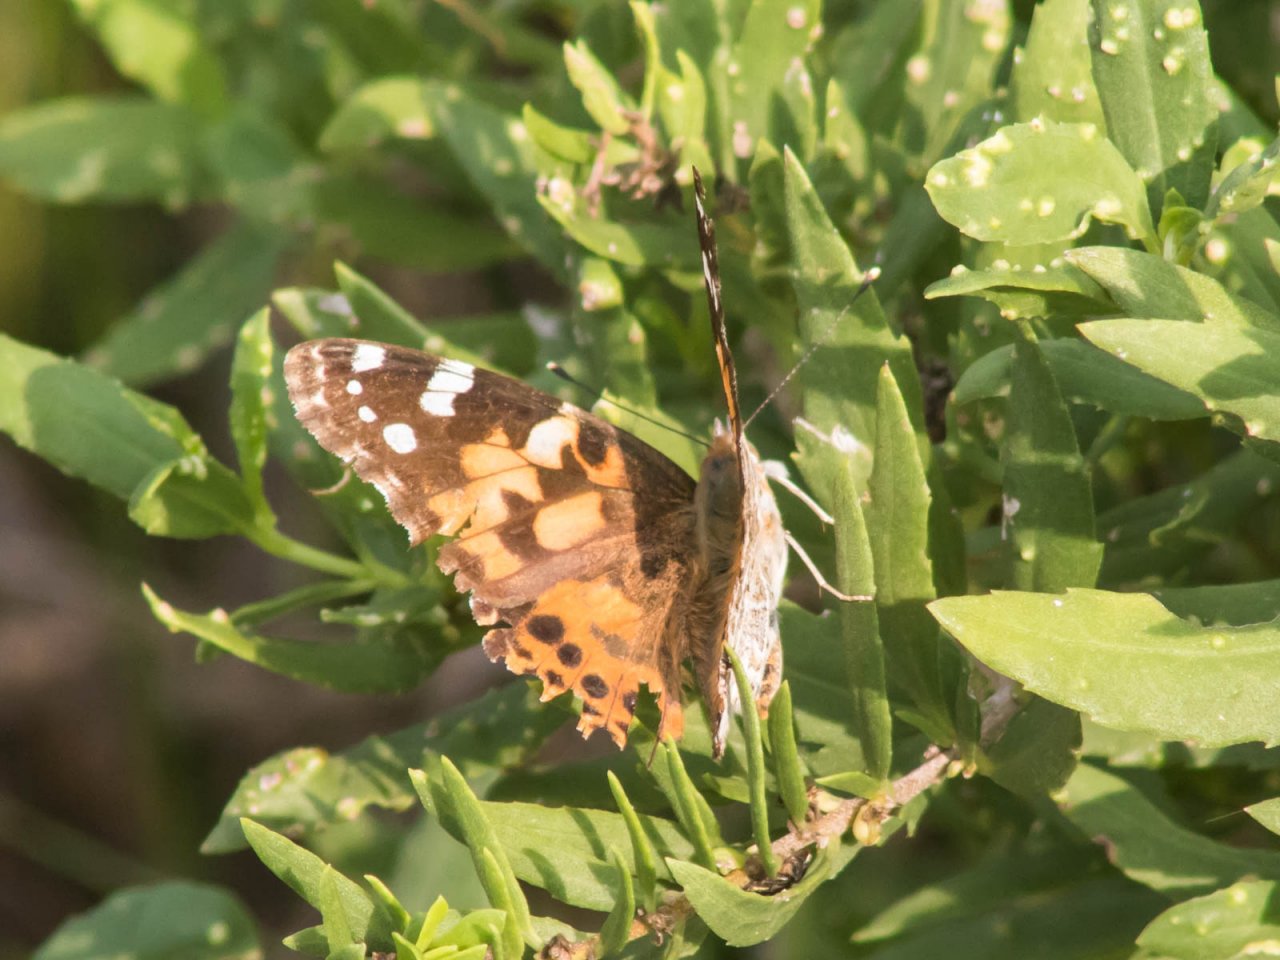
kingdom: Animalia
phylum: Arthropoda
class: Insecta
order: Lepidoptera
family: Nymphalidae
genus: Vanessa
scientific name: Vanessa cardui
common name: Painted Lady
